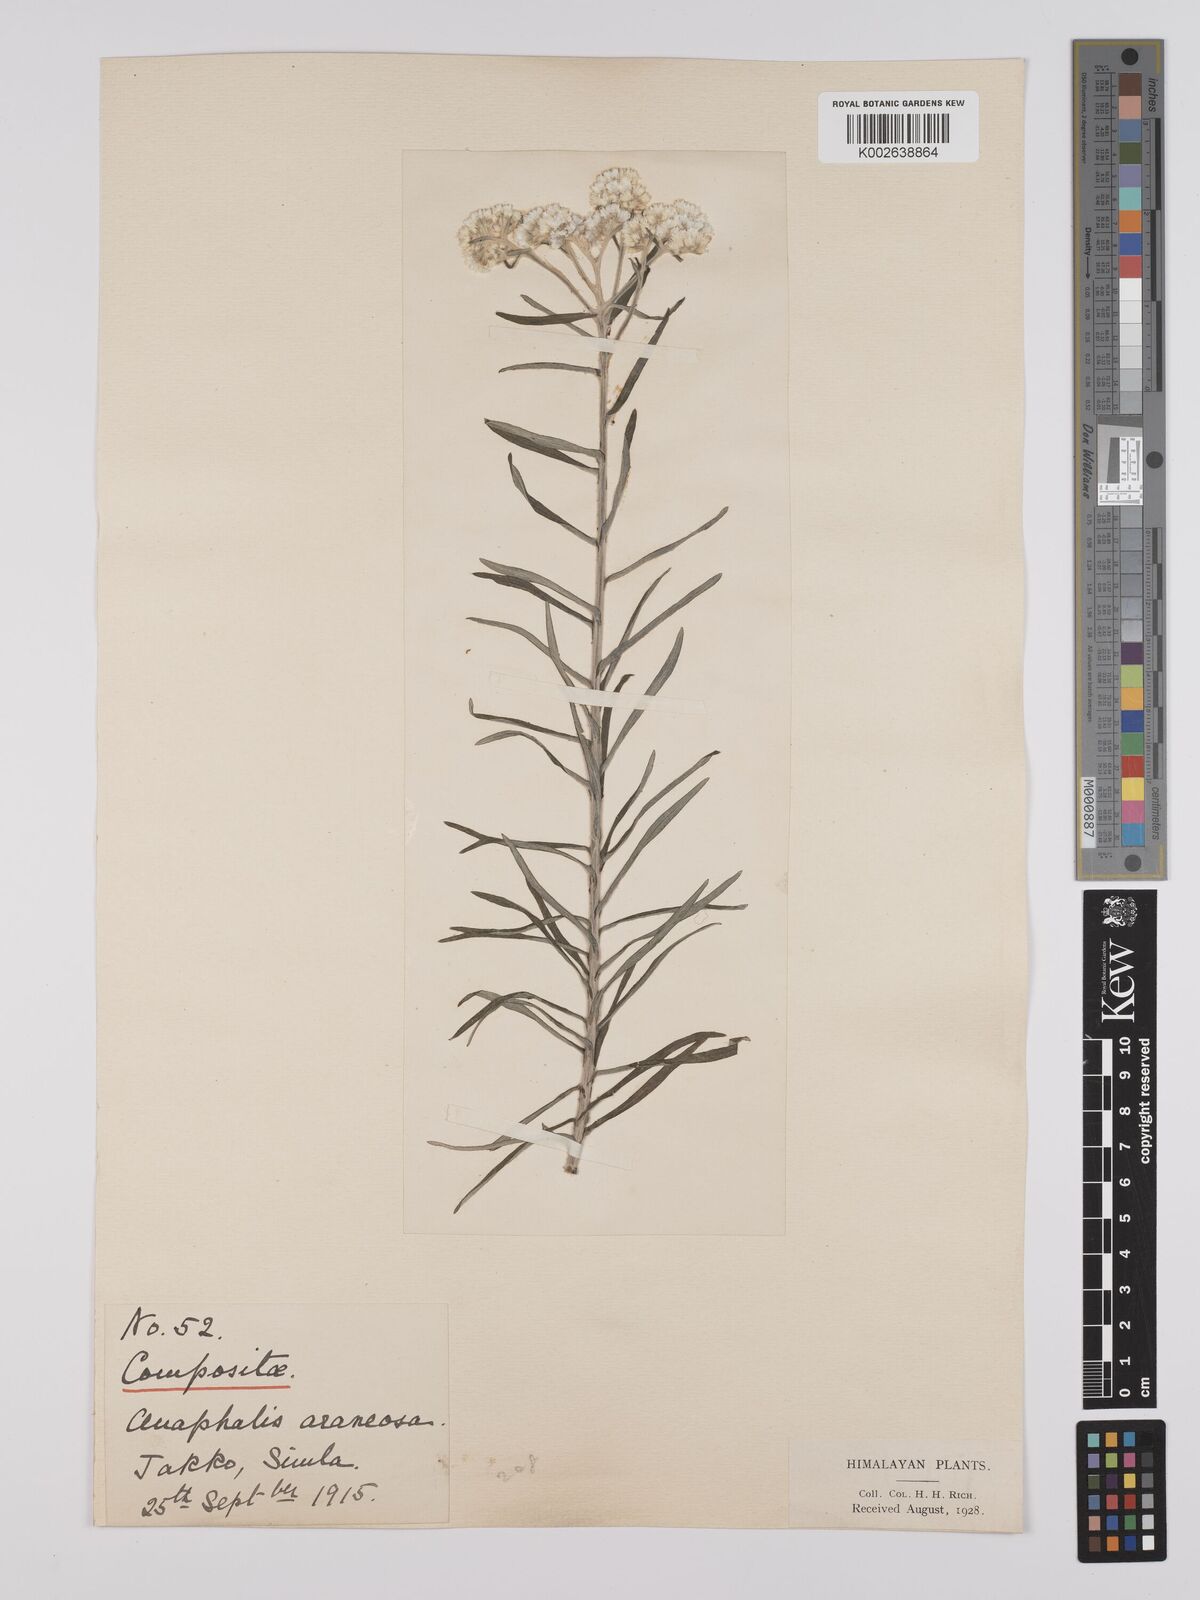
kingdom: Plantae
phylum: Tracheophyta
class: Magnoliopsida
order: Asterales
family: Asteraceae
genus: Anaphalis
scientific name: Anaphalis busua
